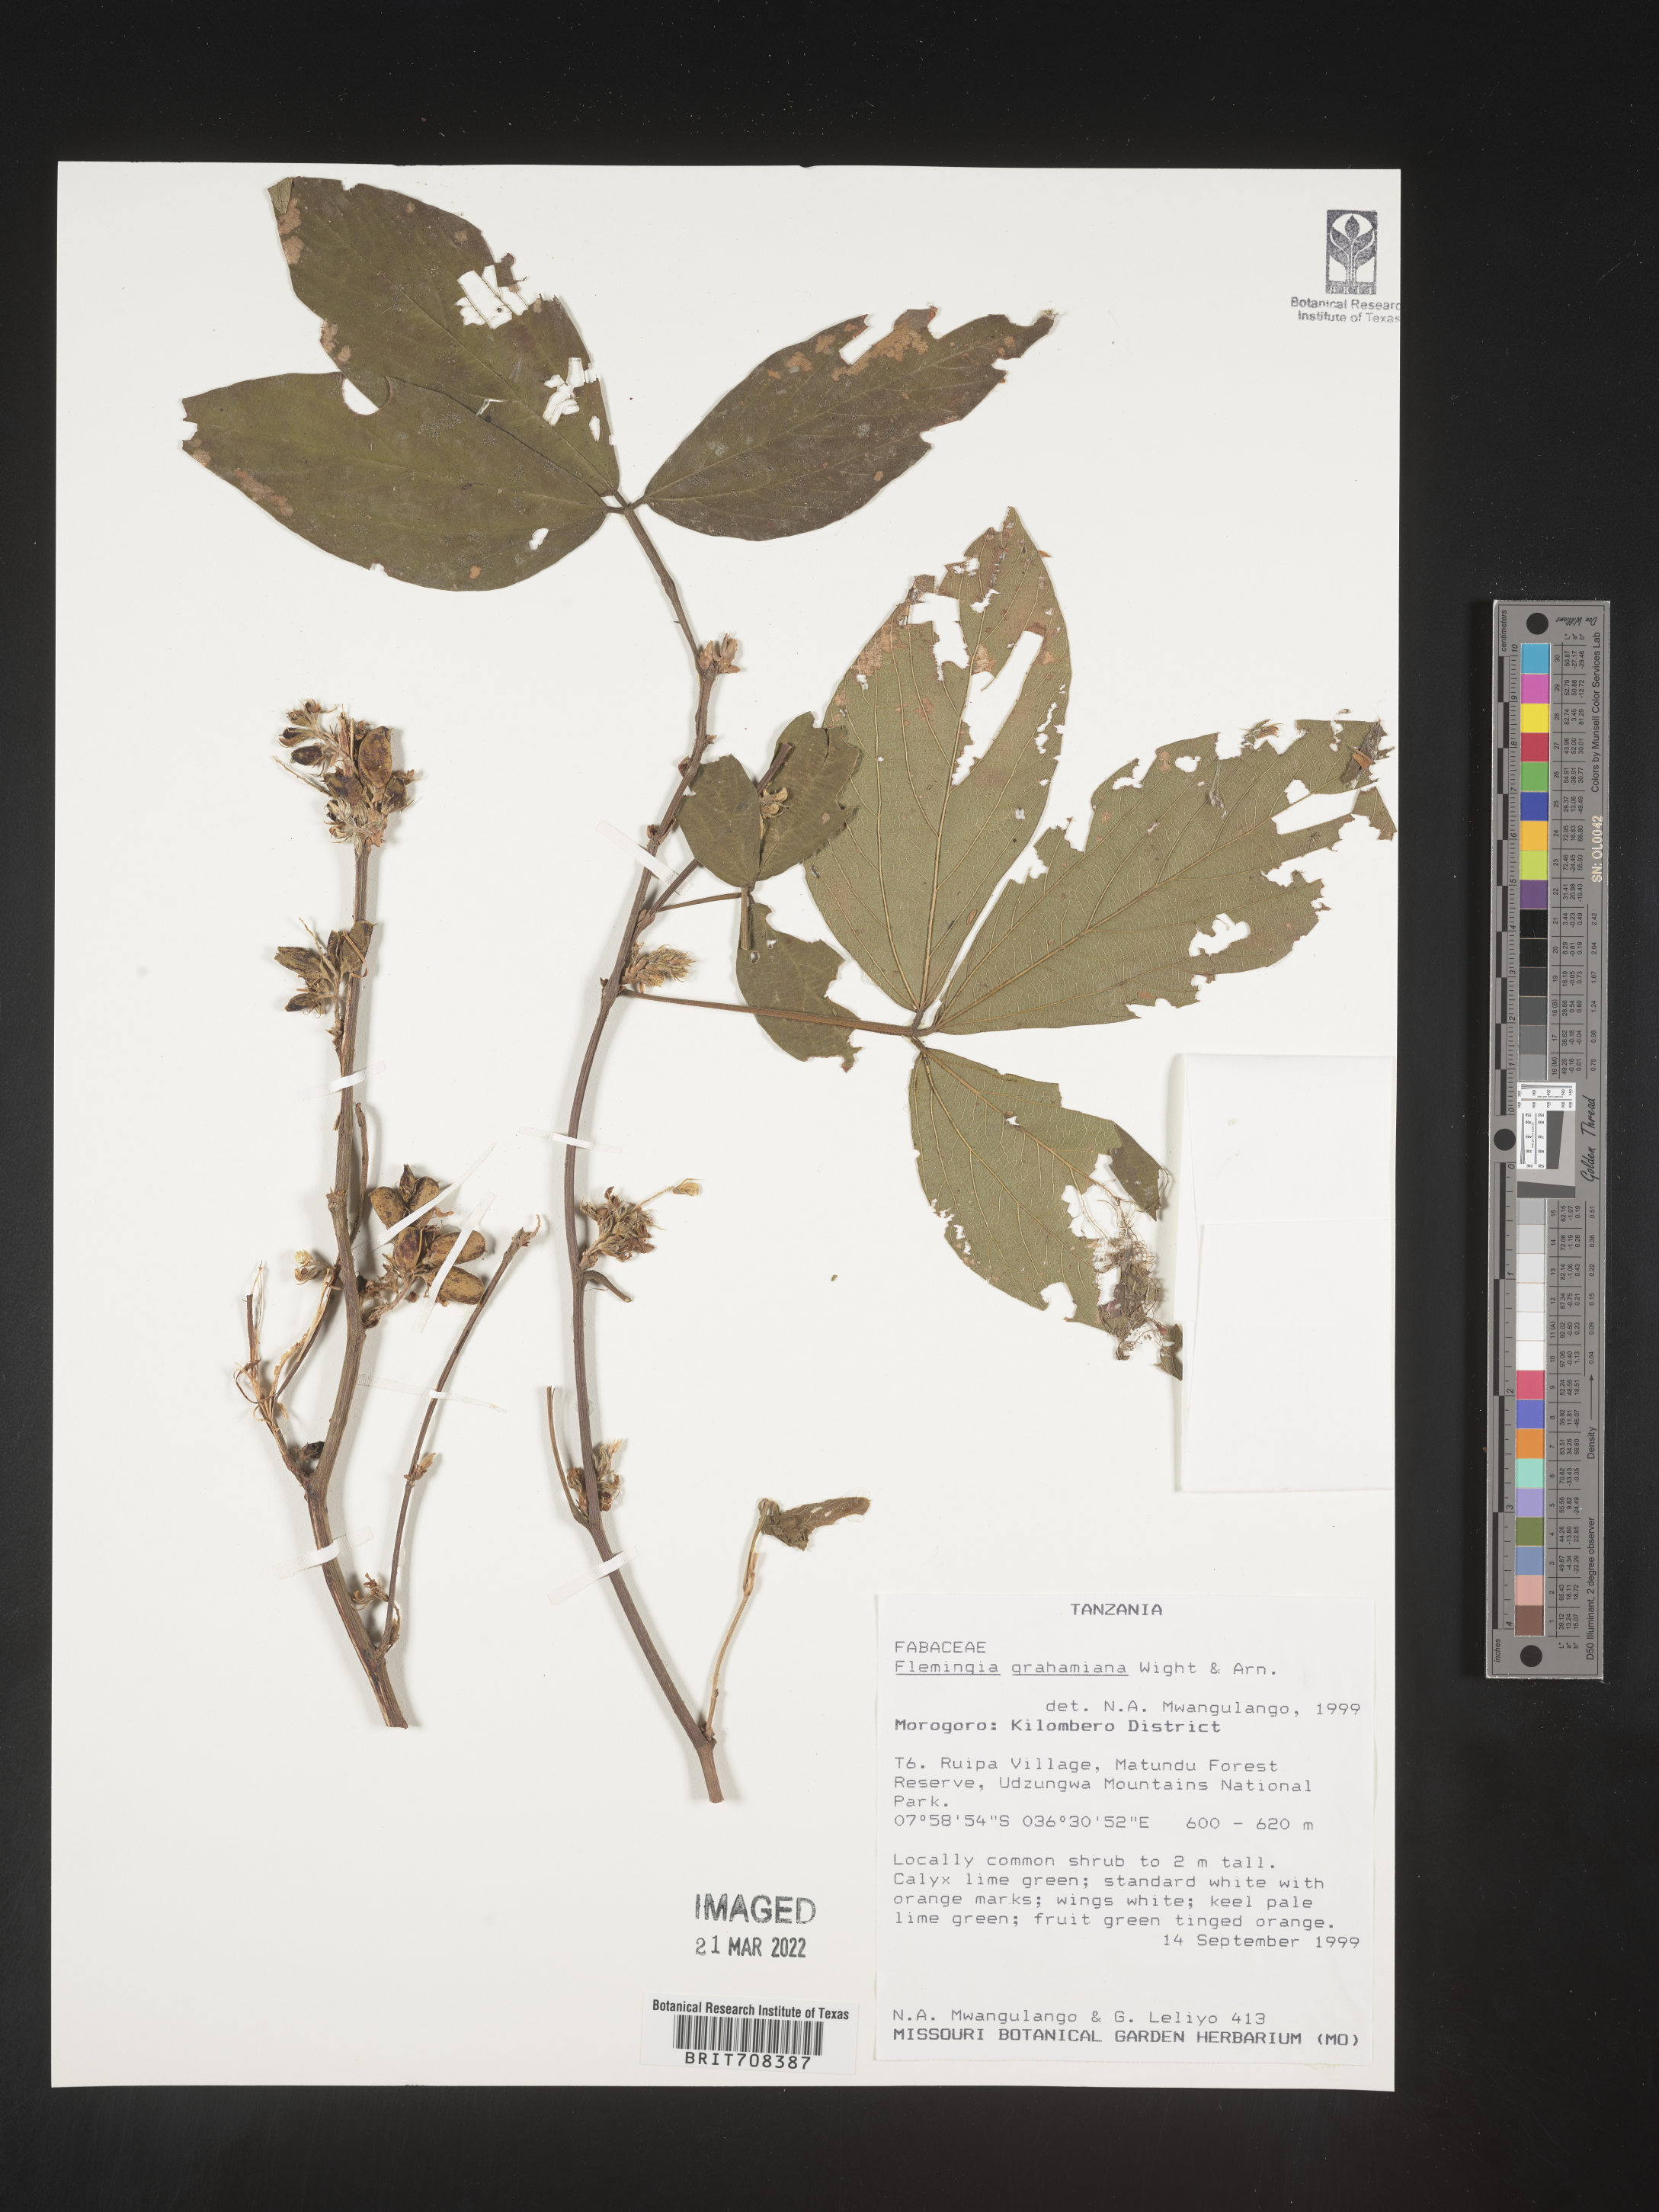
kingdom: Plantae
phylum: Tracheophyta
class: Magnoliopsida
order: Fabales
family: Fabaceae
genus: Flemingia
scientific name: Flemingia
